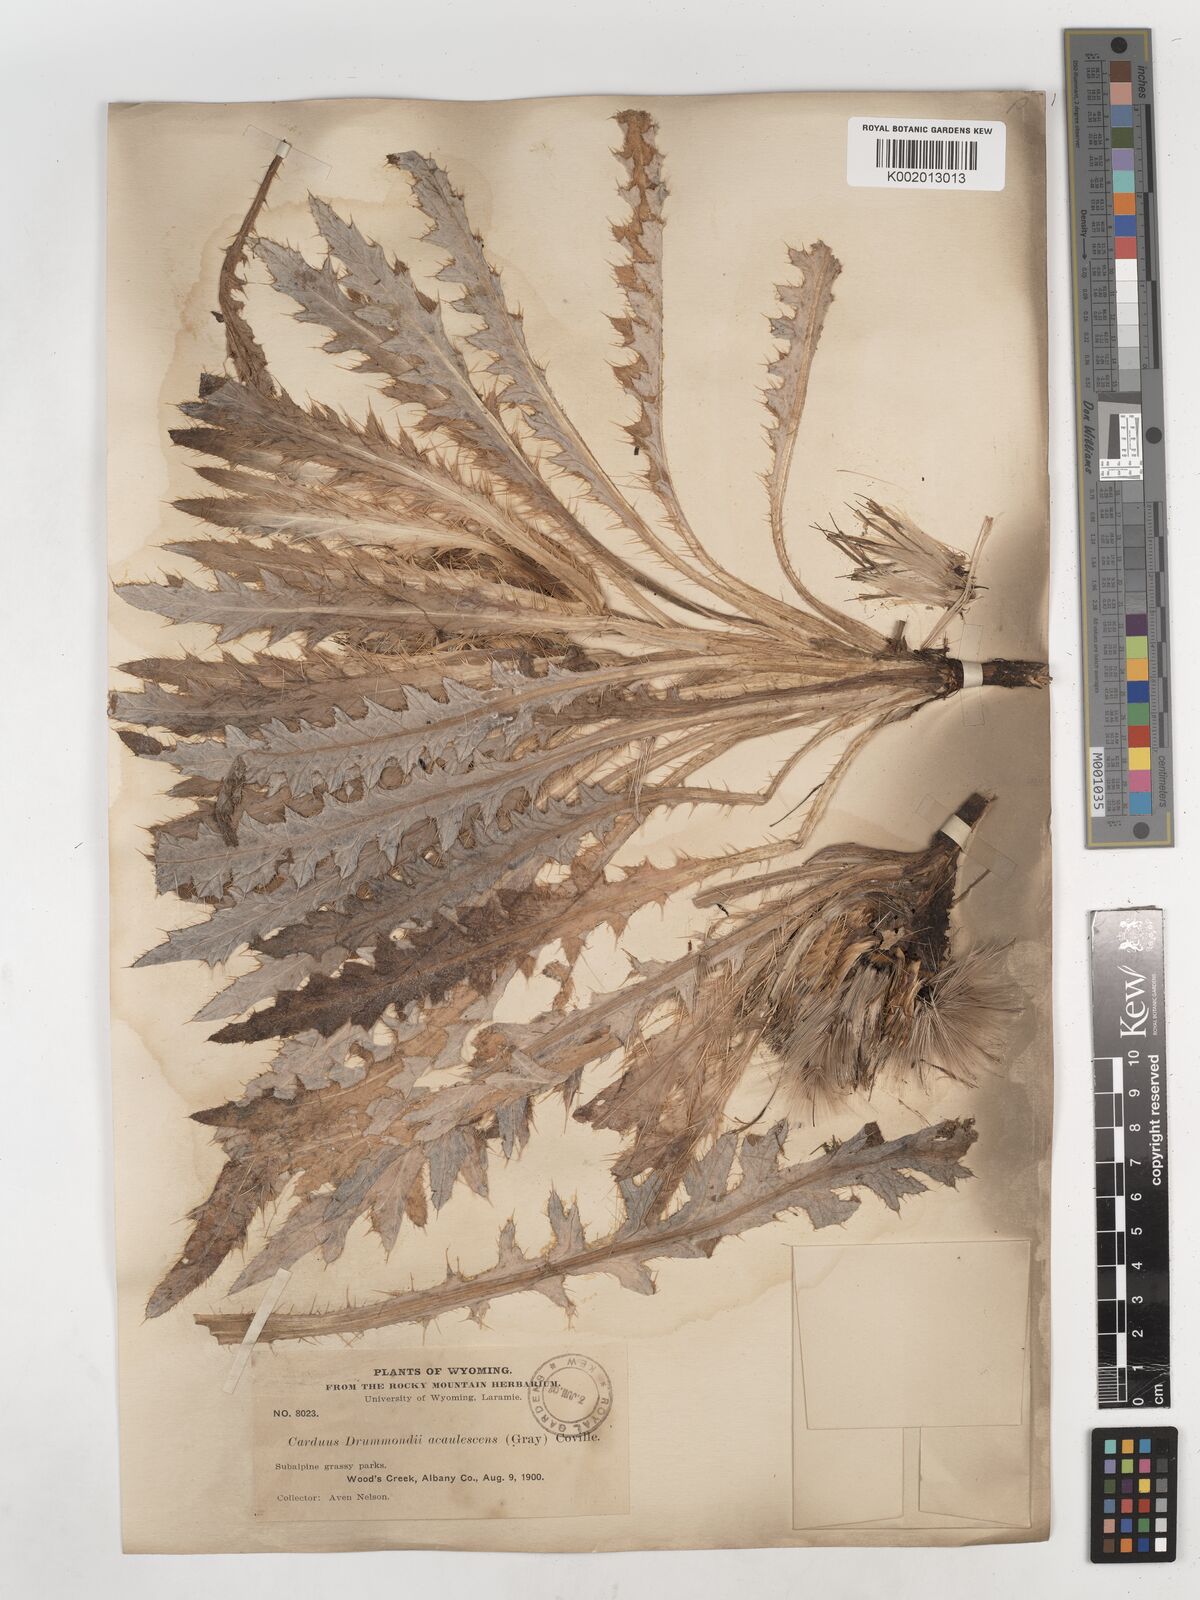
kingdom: Plantae
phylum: Tracheophyta
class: Magnoliopsida
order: Asterales
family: Asteraceae
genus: Cirsium
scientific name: Cirsium tioganum
